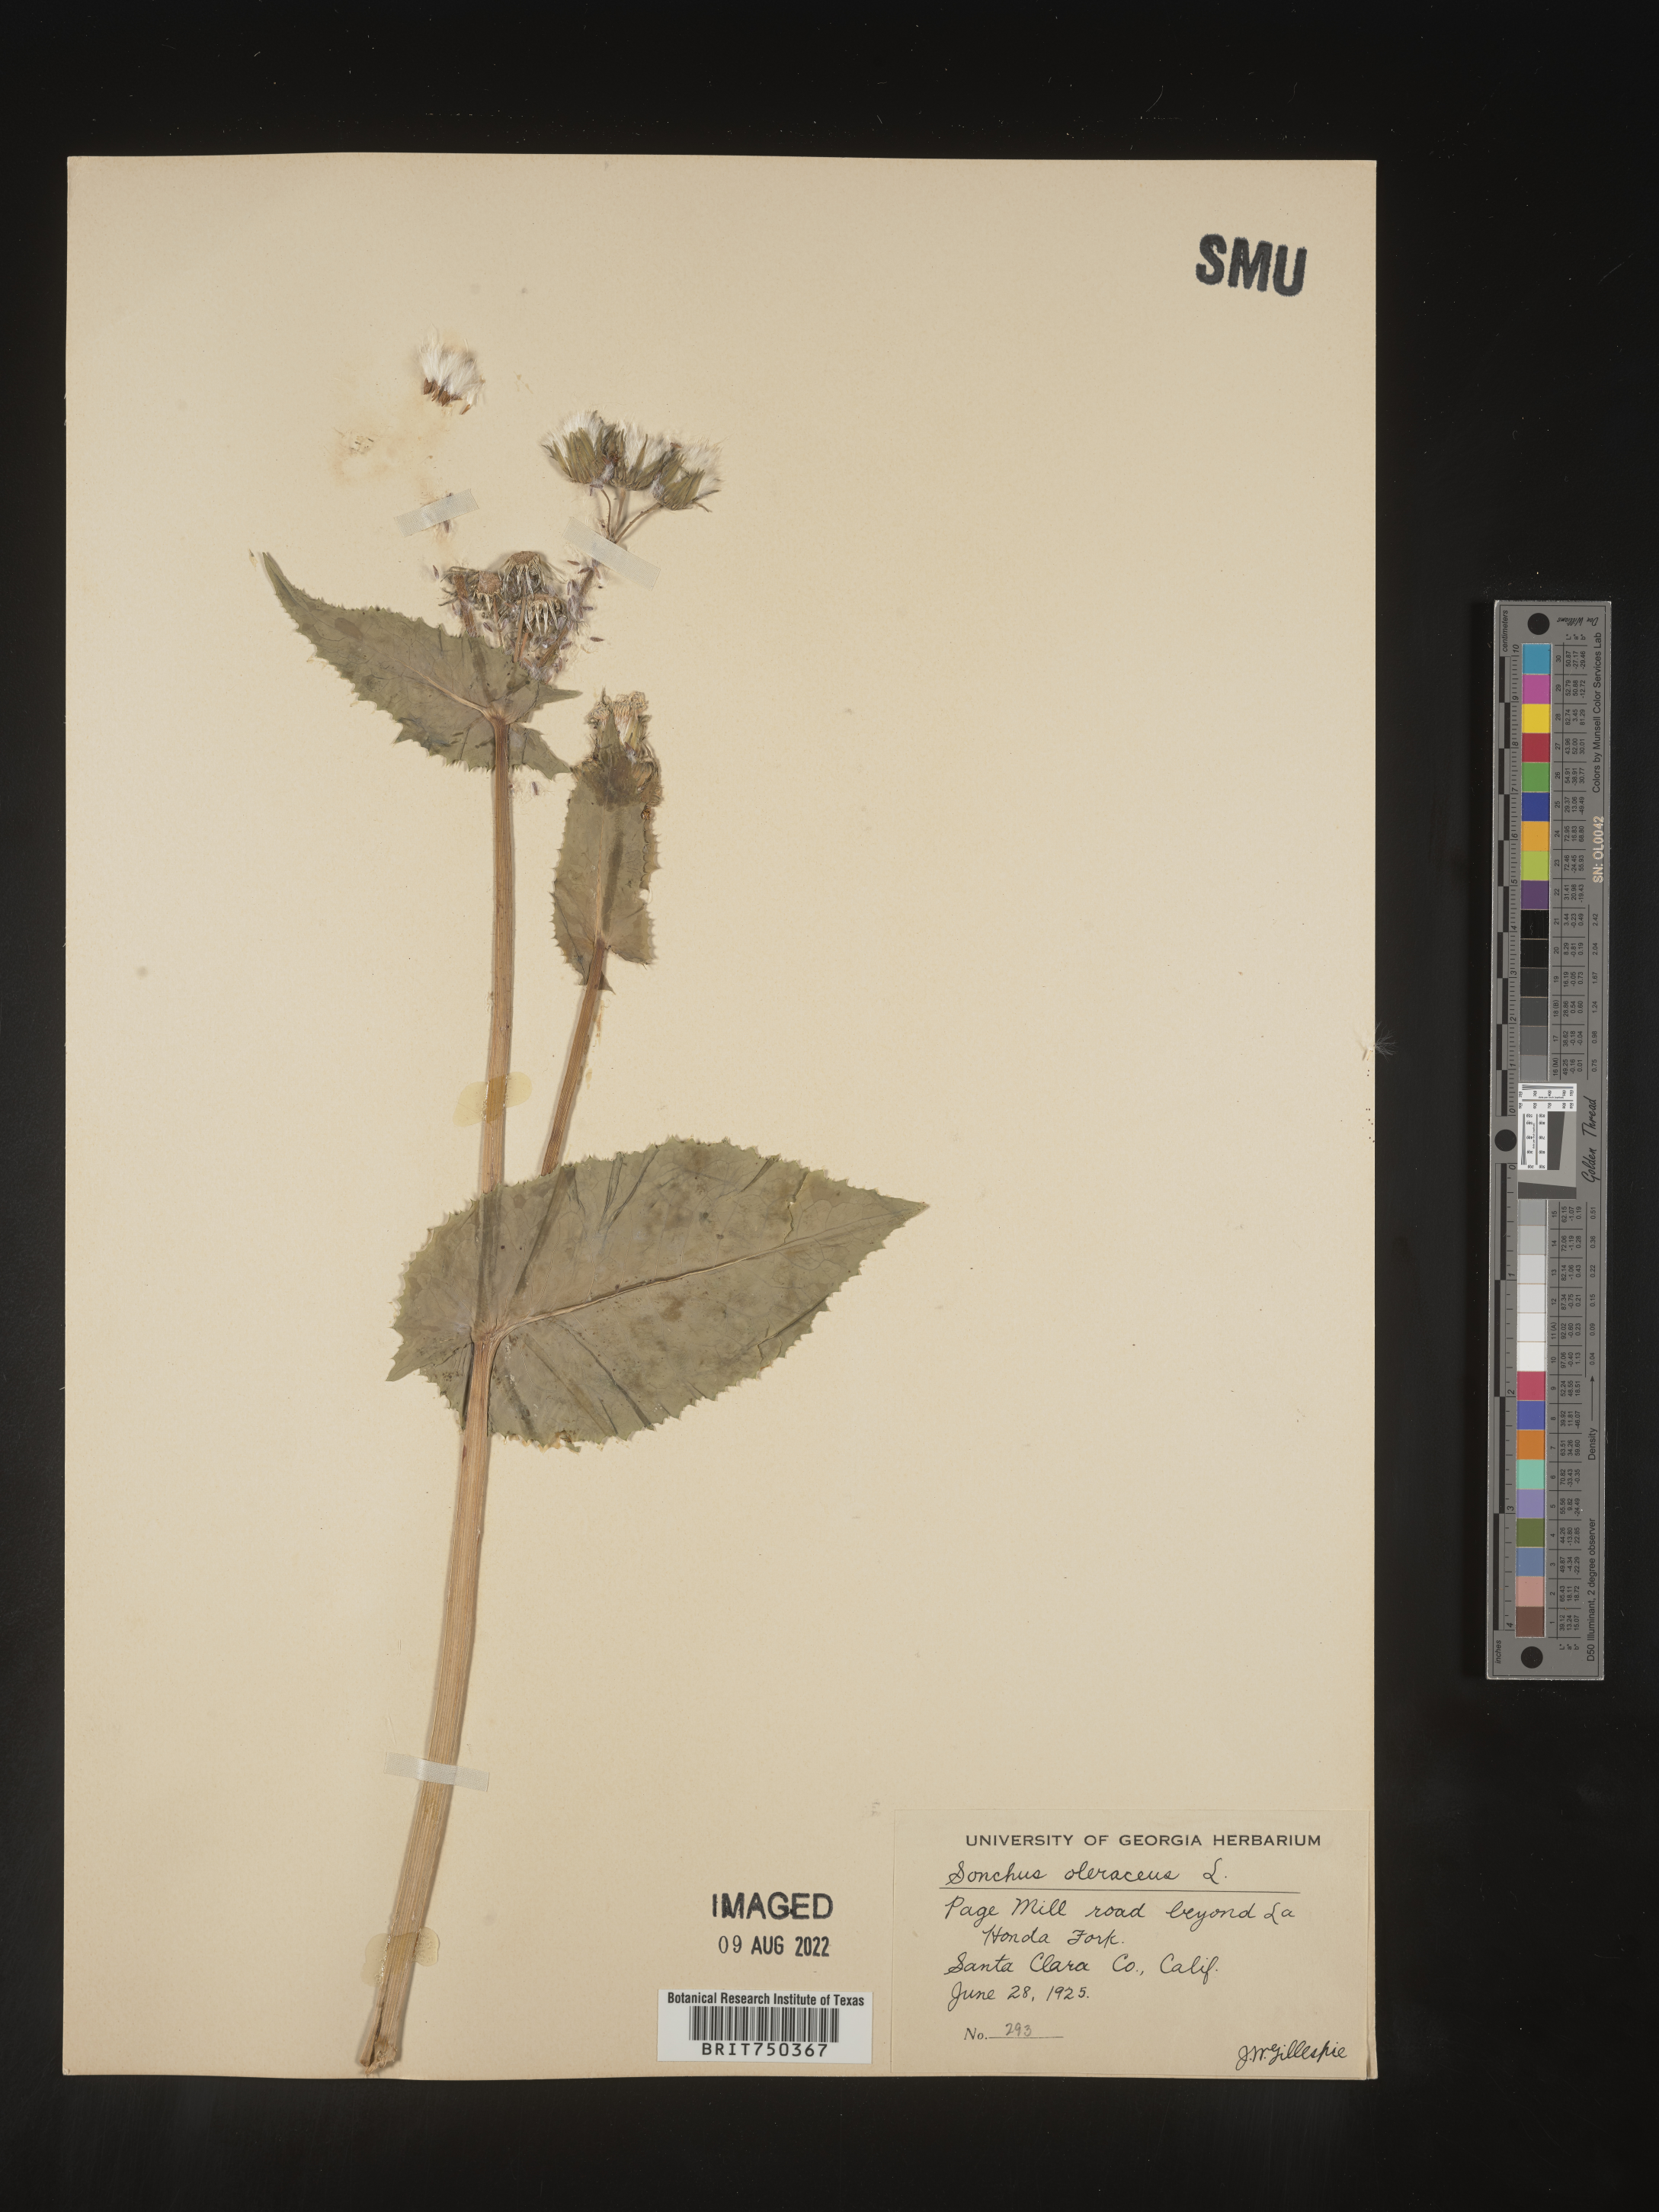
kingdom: Plantae
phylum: Tracheophyta
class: Magnoliopsida
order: Asterales
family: Asteraceae
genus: Sonchus
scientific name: Sonchus oleraceus
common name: Common sowthistle
